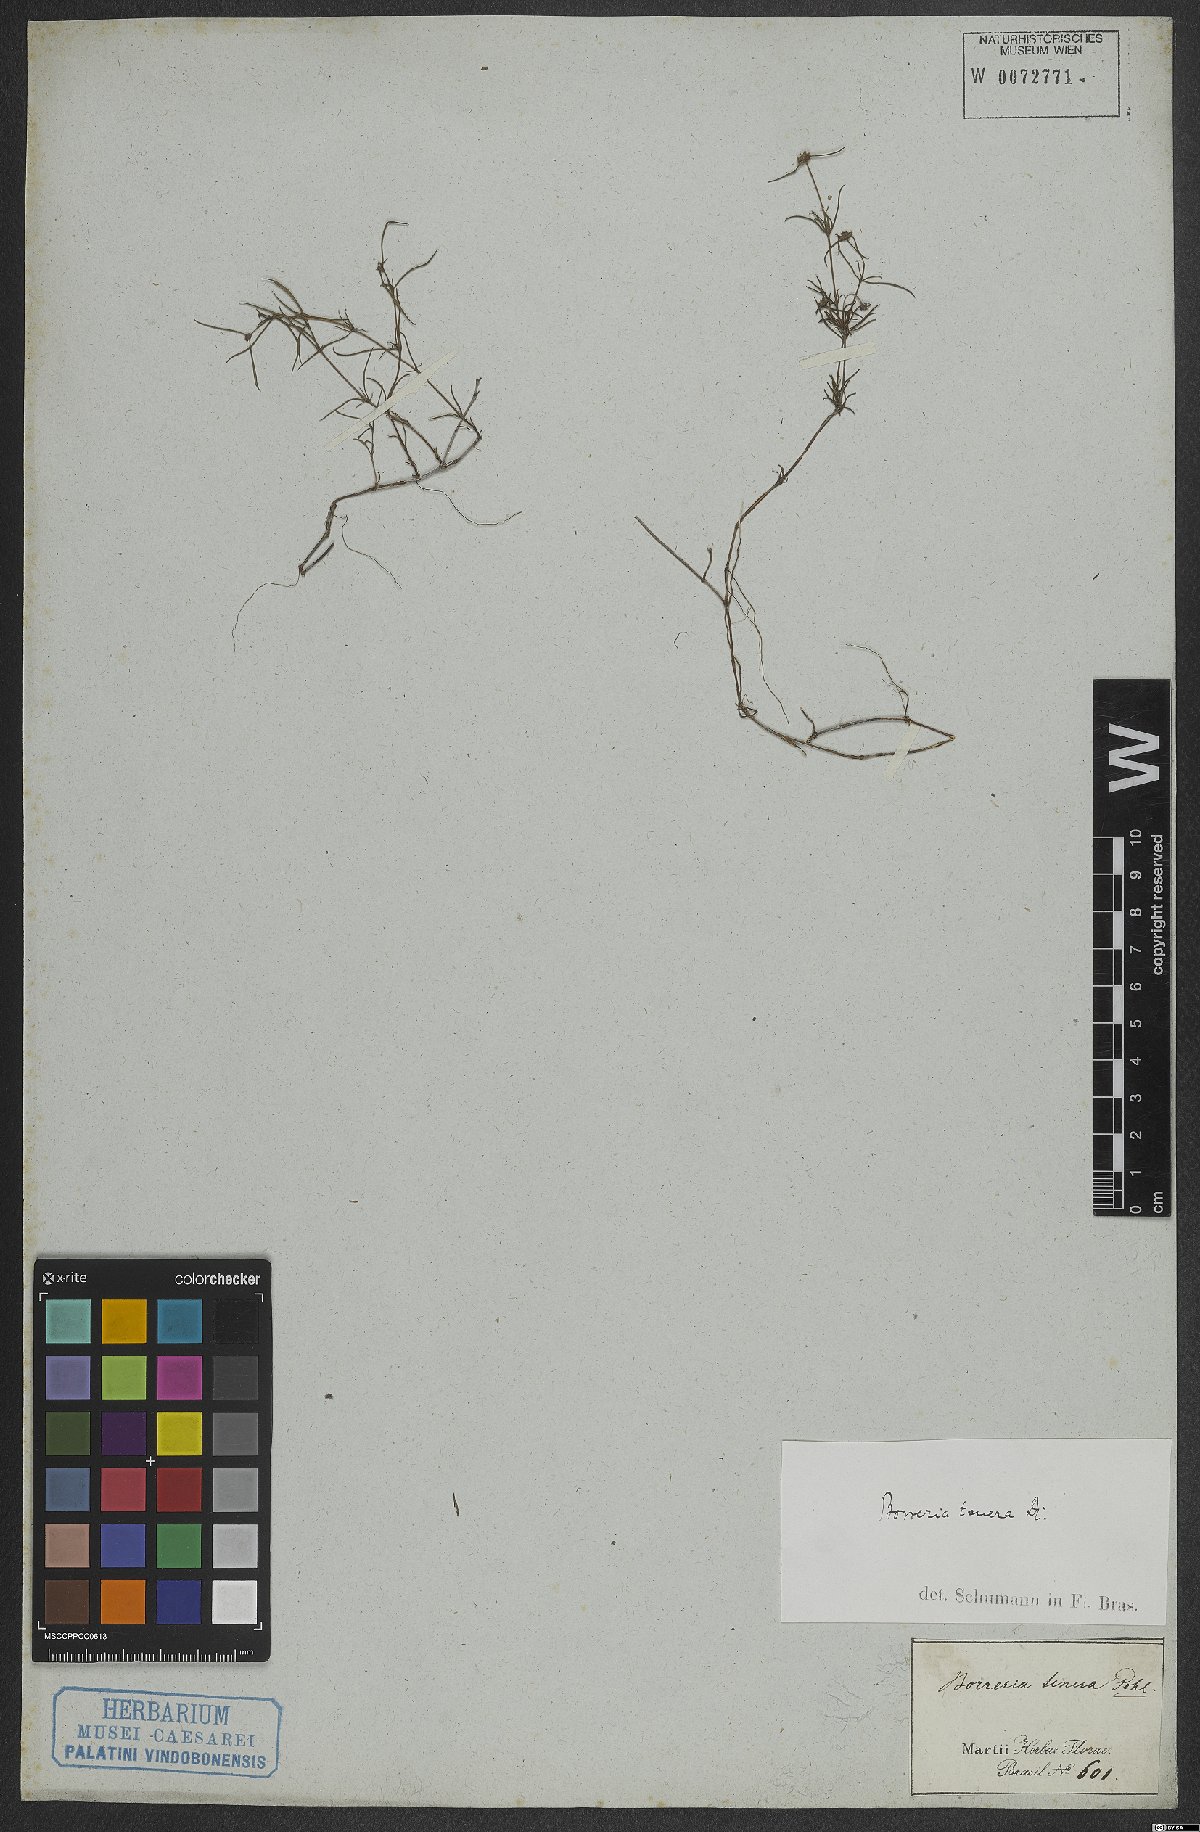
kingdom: Plantae
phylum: Tracheophyta
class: Magnoliopsida
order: Gentianales
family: Rubiaceae
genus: Spermacoce
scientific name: Spermacoce ocymoides
